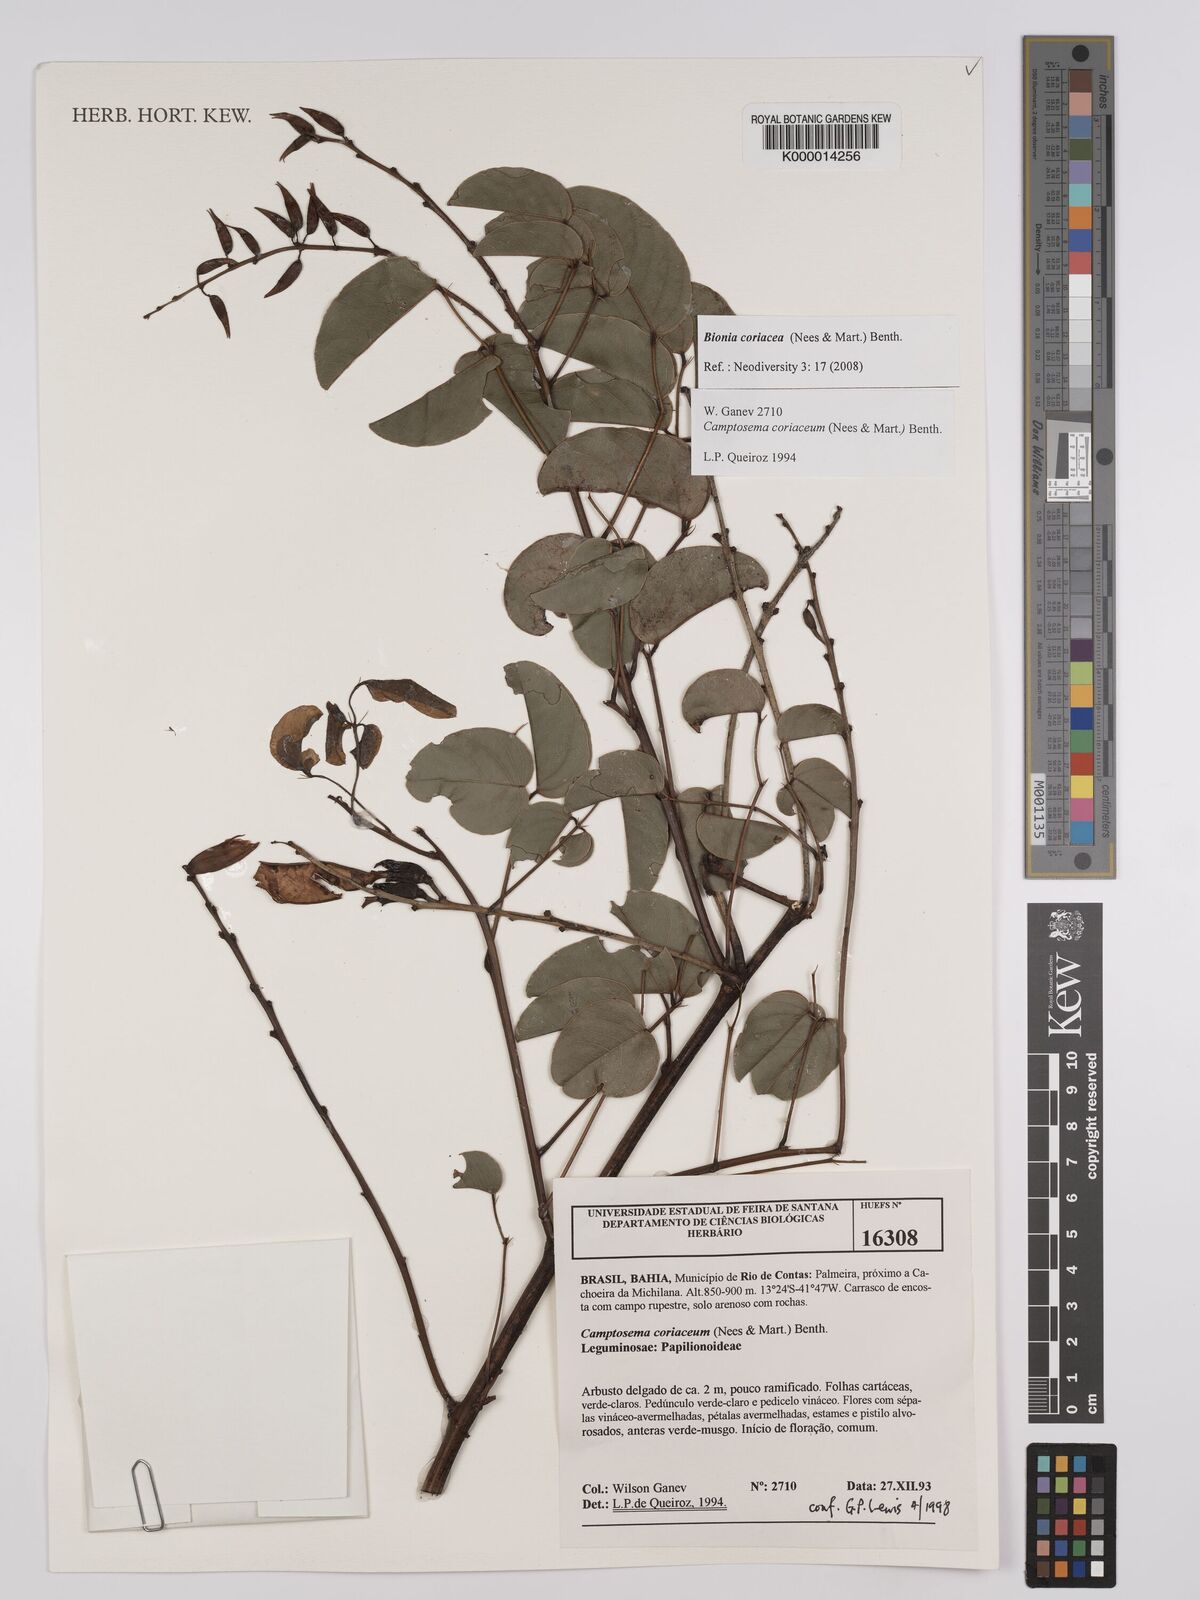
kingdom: Plantae
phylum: Tracheophyta
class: Magnoliopsida
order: Fabales
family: Fabaceae
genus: Camptosema
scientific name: Camptosema coriaceum
